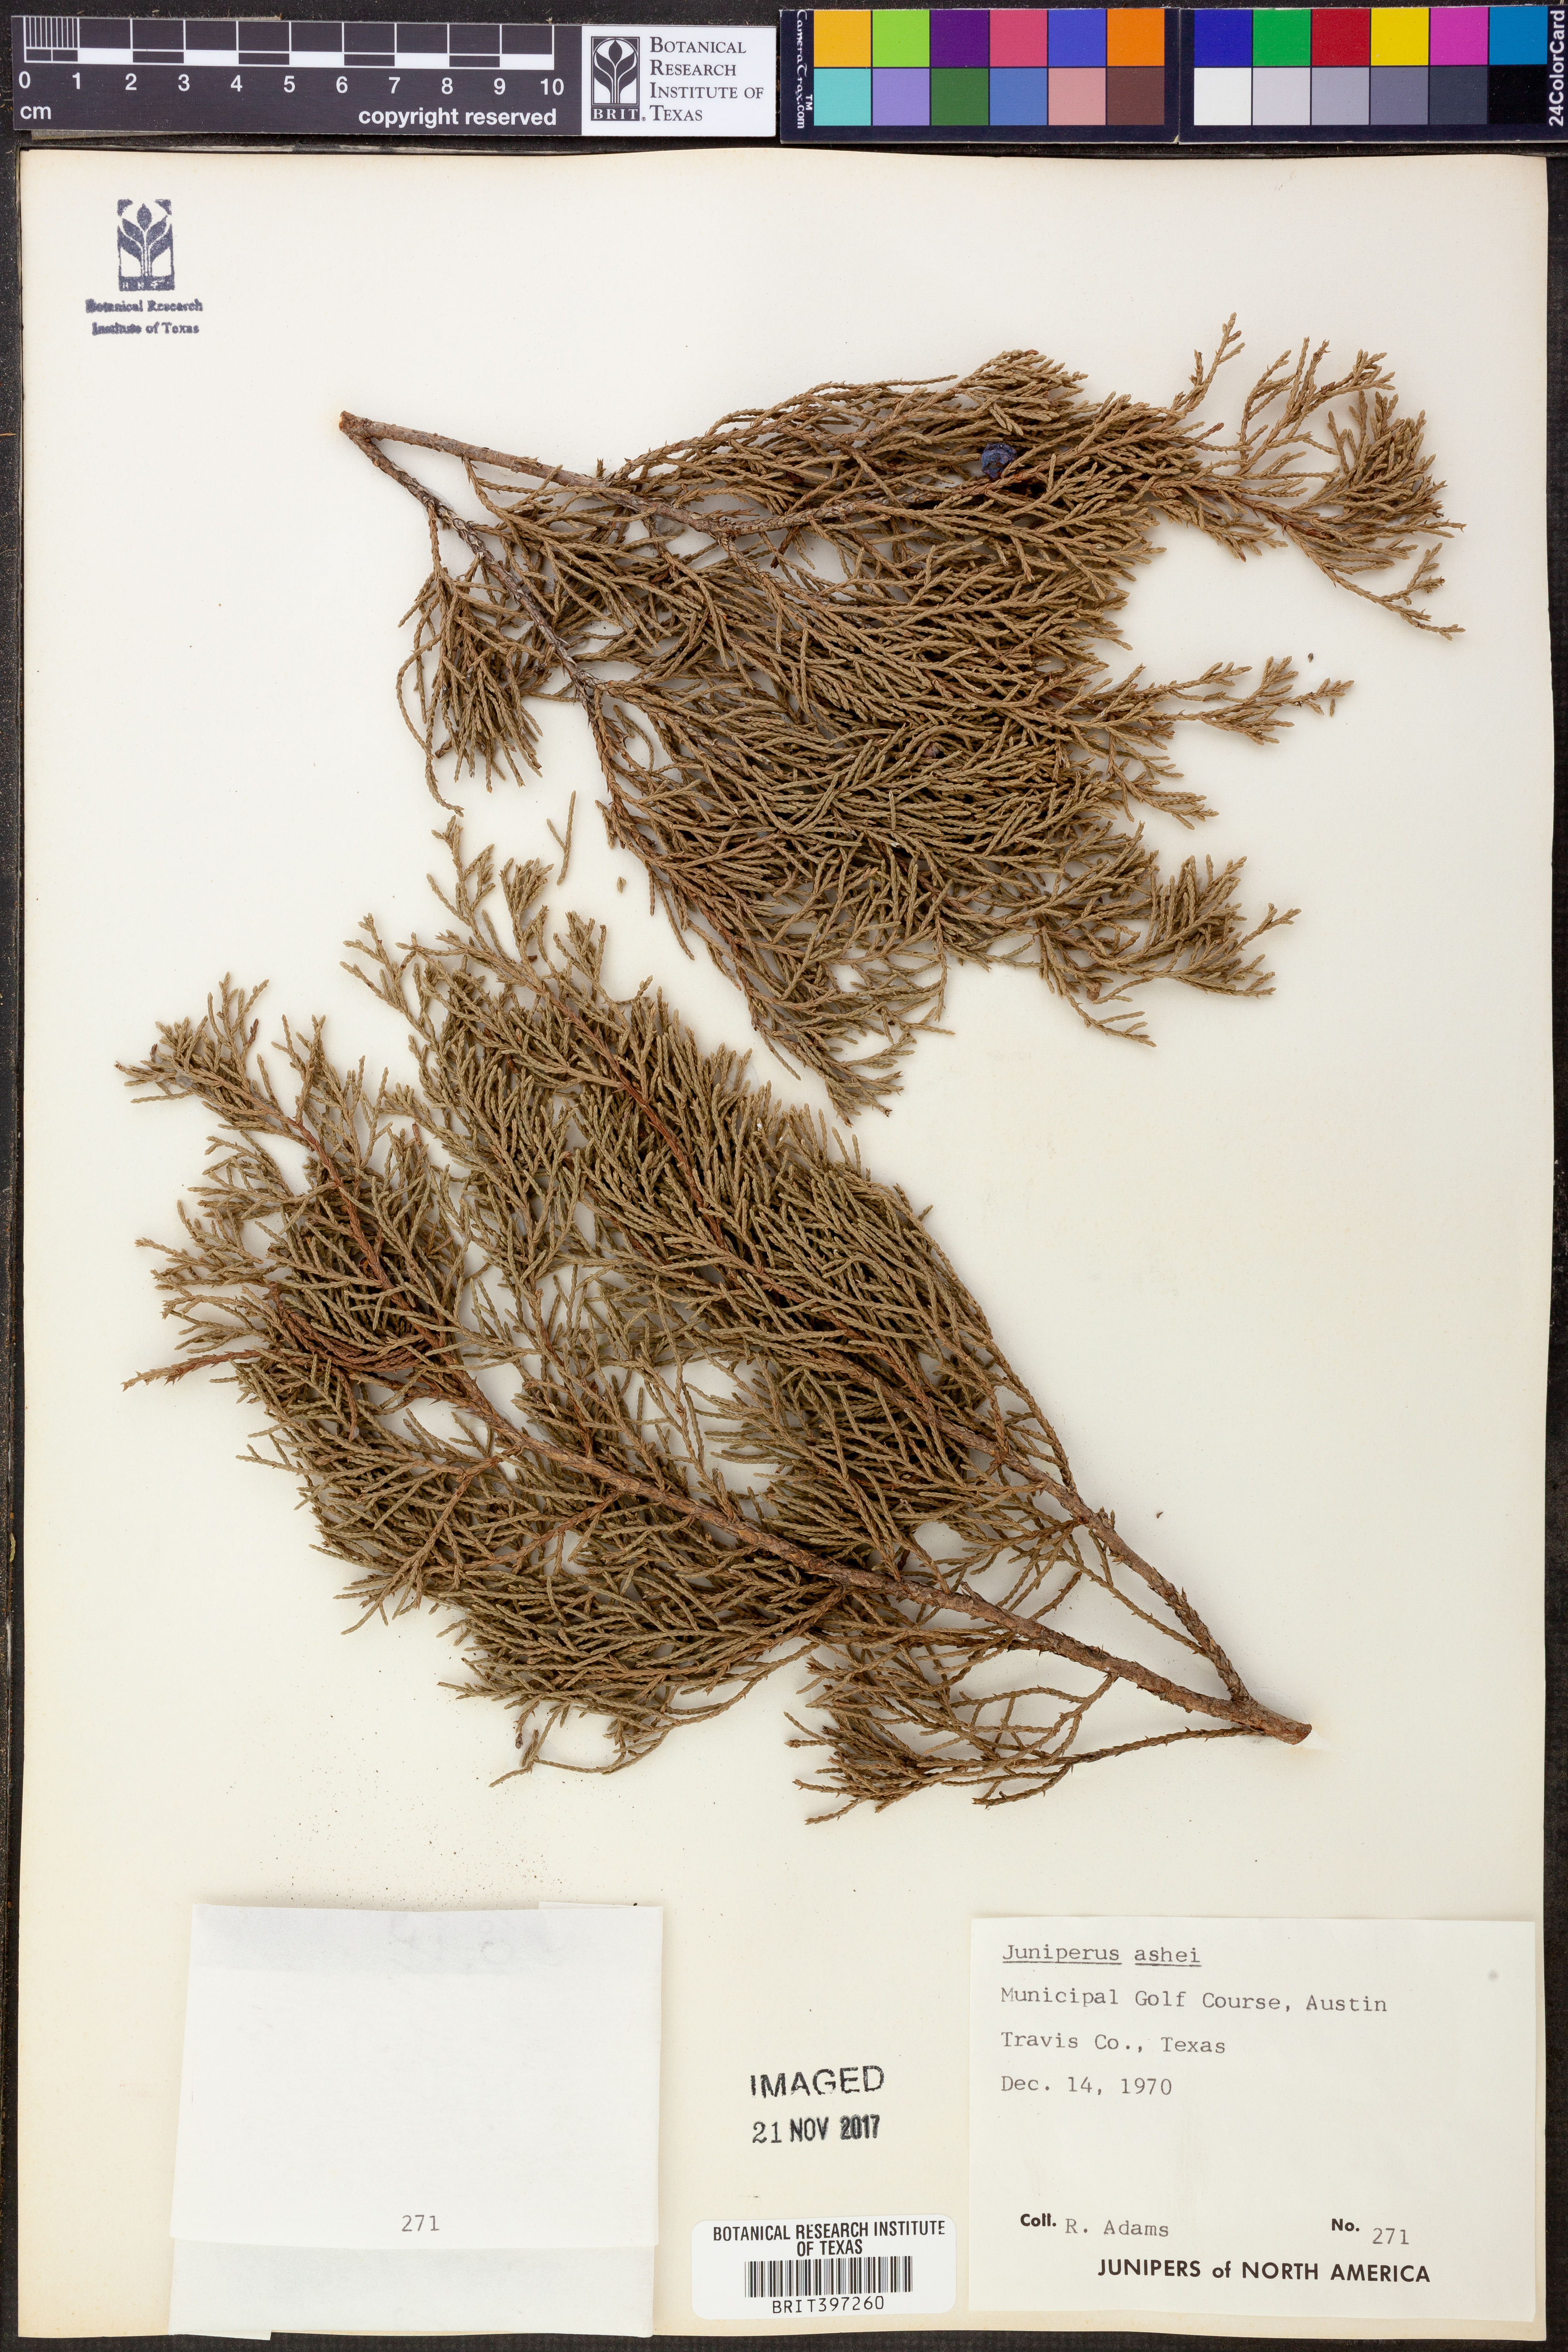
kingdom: Plantae
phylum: Tracheophyta
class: Pinopsida
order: Pinales
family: Cupressaceae
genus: Juniperus
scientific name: Juniperus ashei
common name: Mexican juniper
